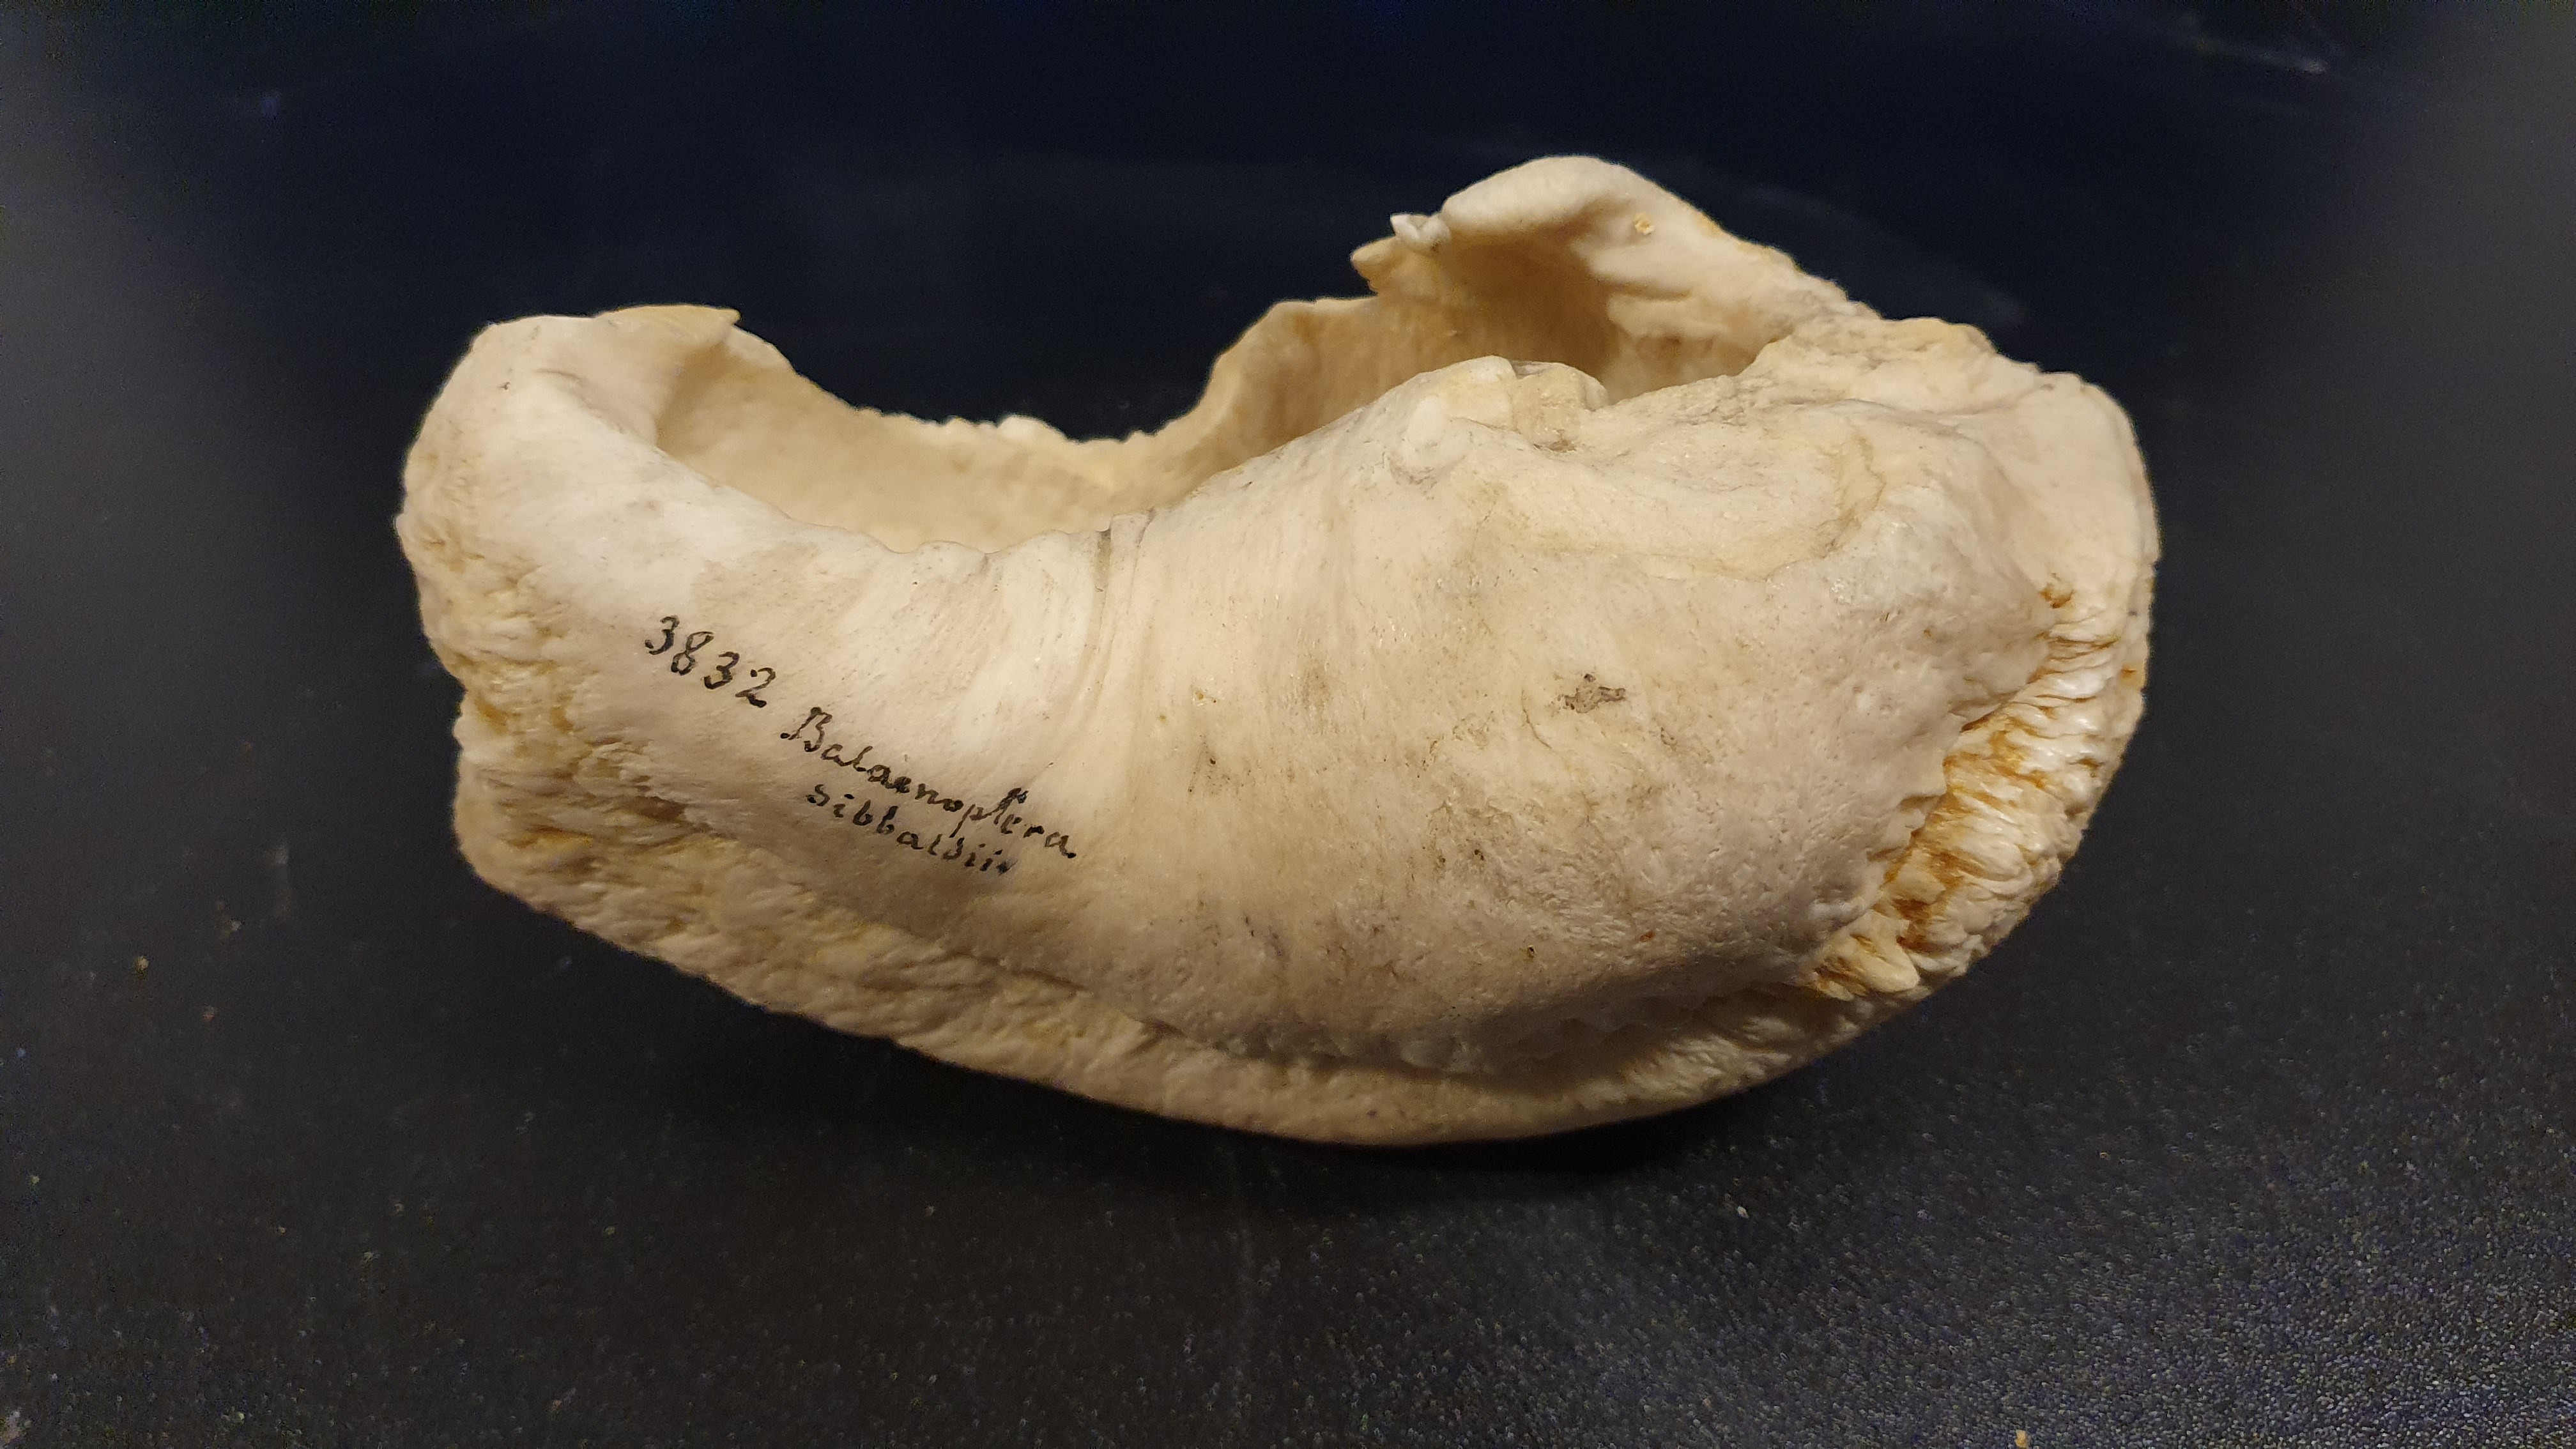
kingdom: Animalia
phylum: Chordata
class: Mammalia
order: Cetacea
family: Balaenopteridae
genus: Balaenoptera
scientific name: Balaenoptera musculus
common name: Blue whale
